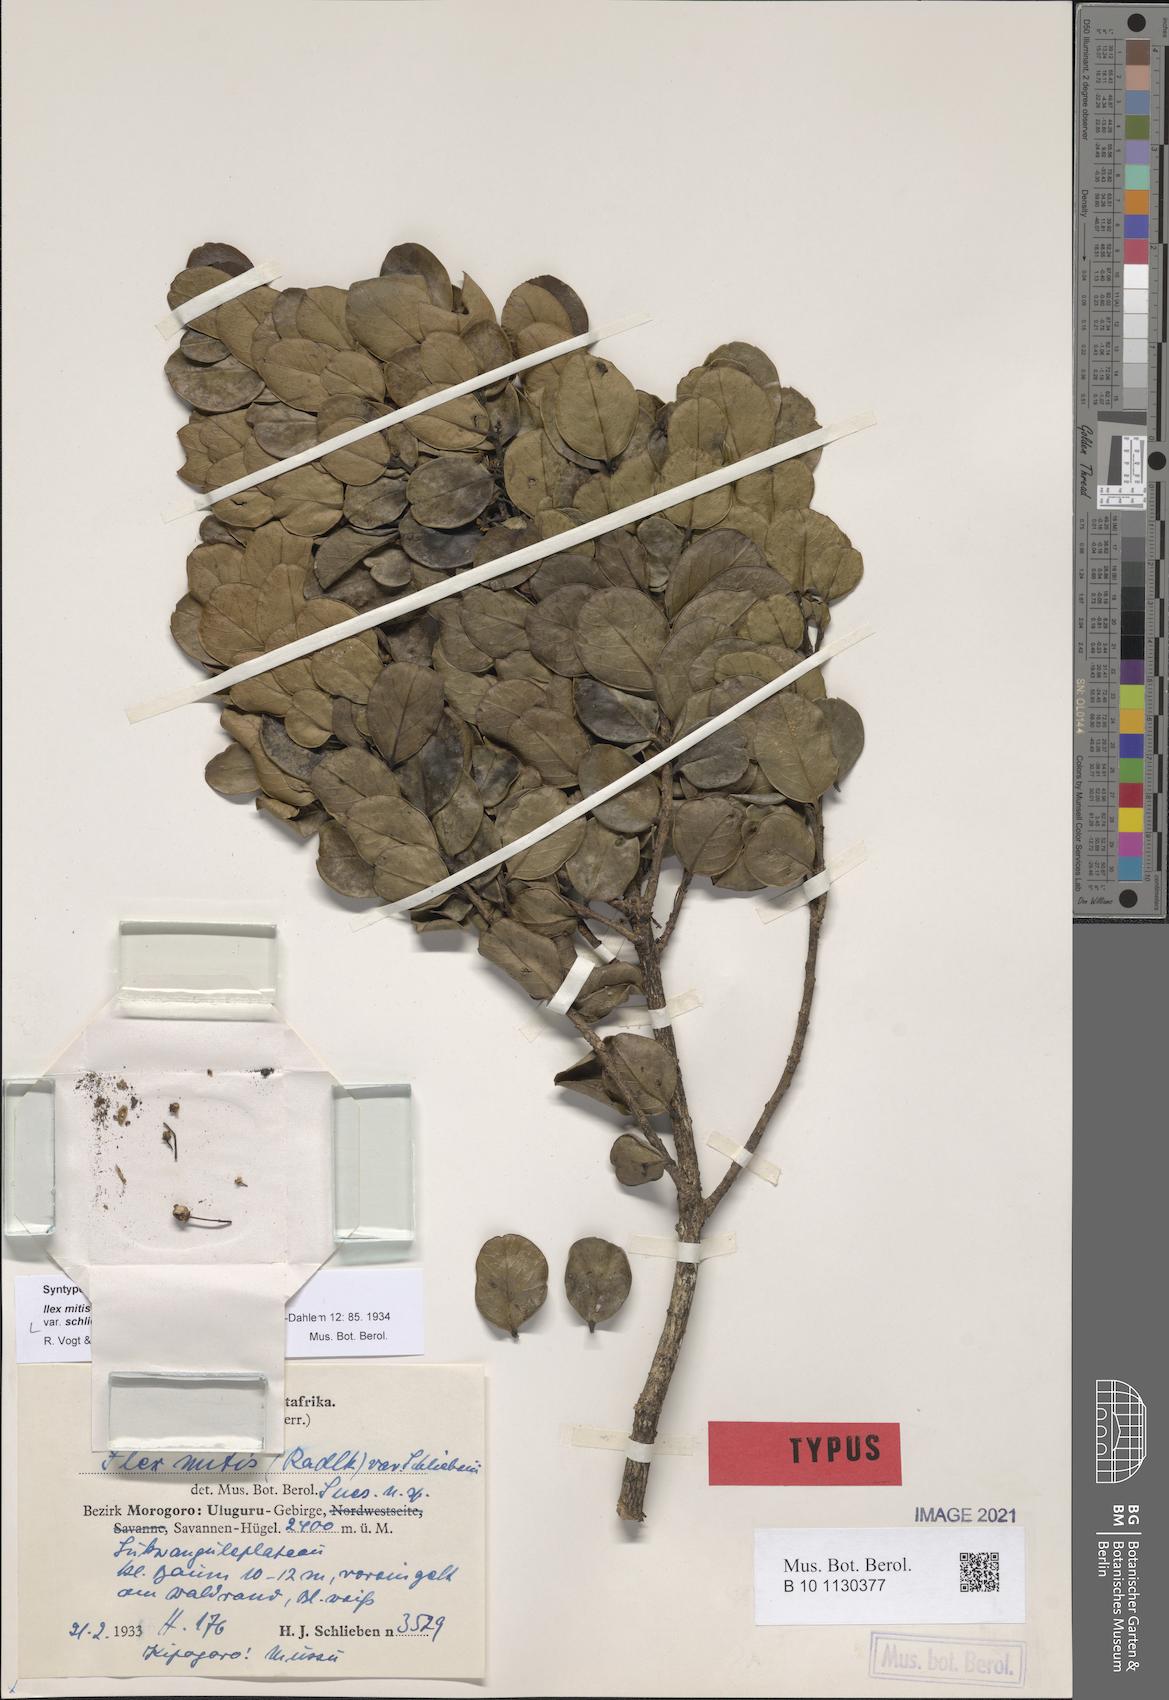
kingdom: Plantae
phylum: Tracheophyta
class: Magnoliopsida
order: Aquifoliales
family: Aquifoliaceae
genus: Ilex
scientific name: Ilex mitis
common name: African holly
